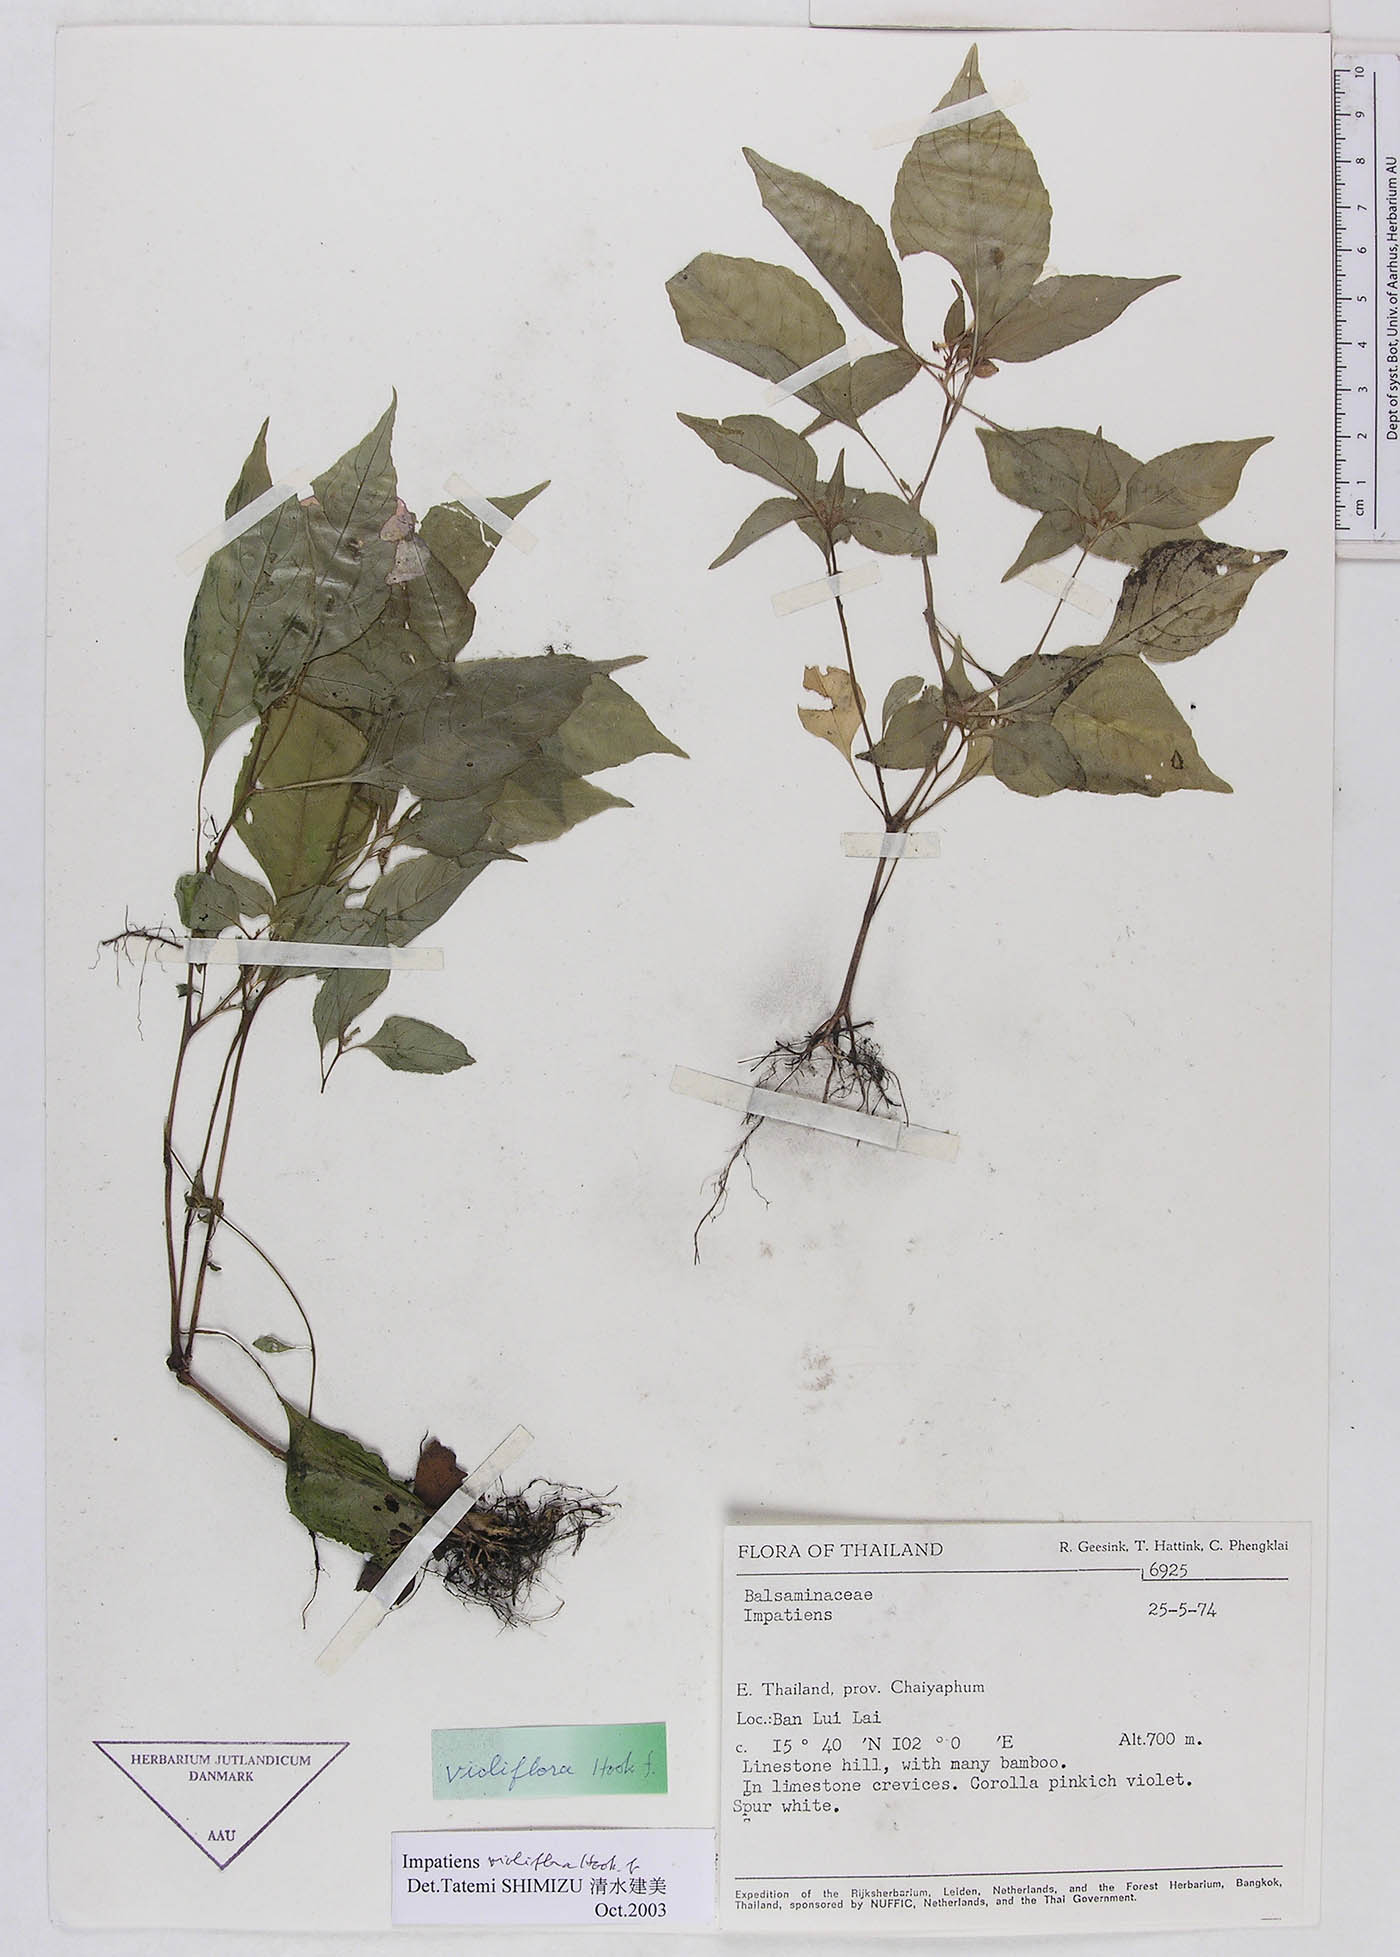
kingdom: Plantae
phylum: Tracheophyta
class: Magnoliopsida
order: Ericales
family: Balsaminaceae
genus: Impatiens
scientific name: Impatiens violiflora
